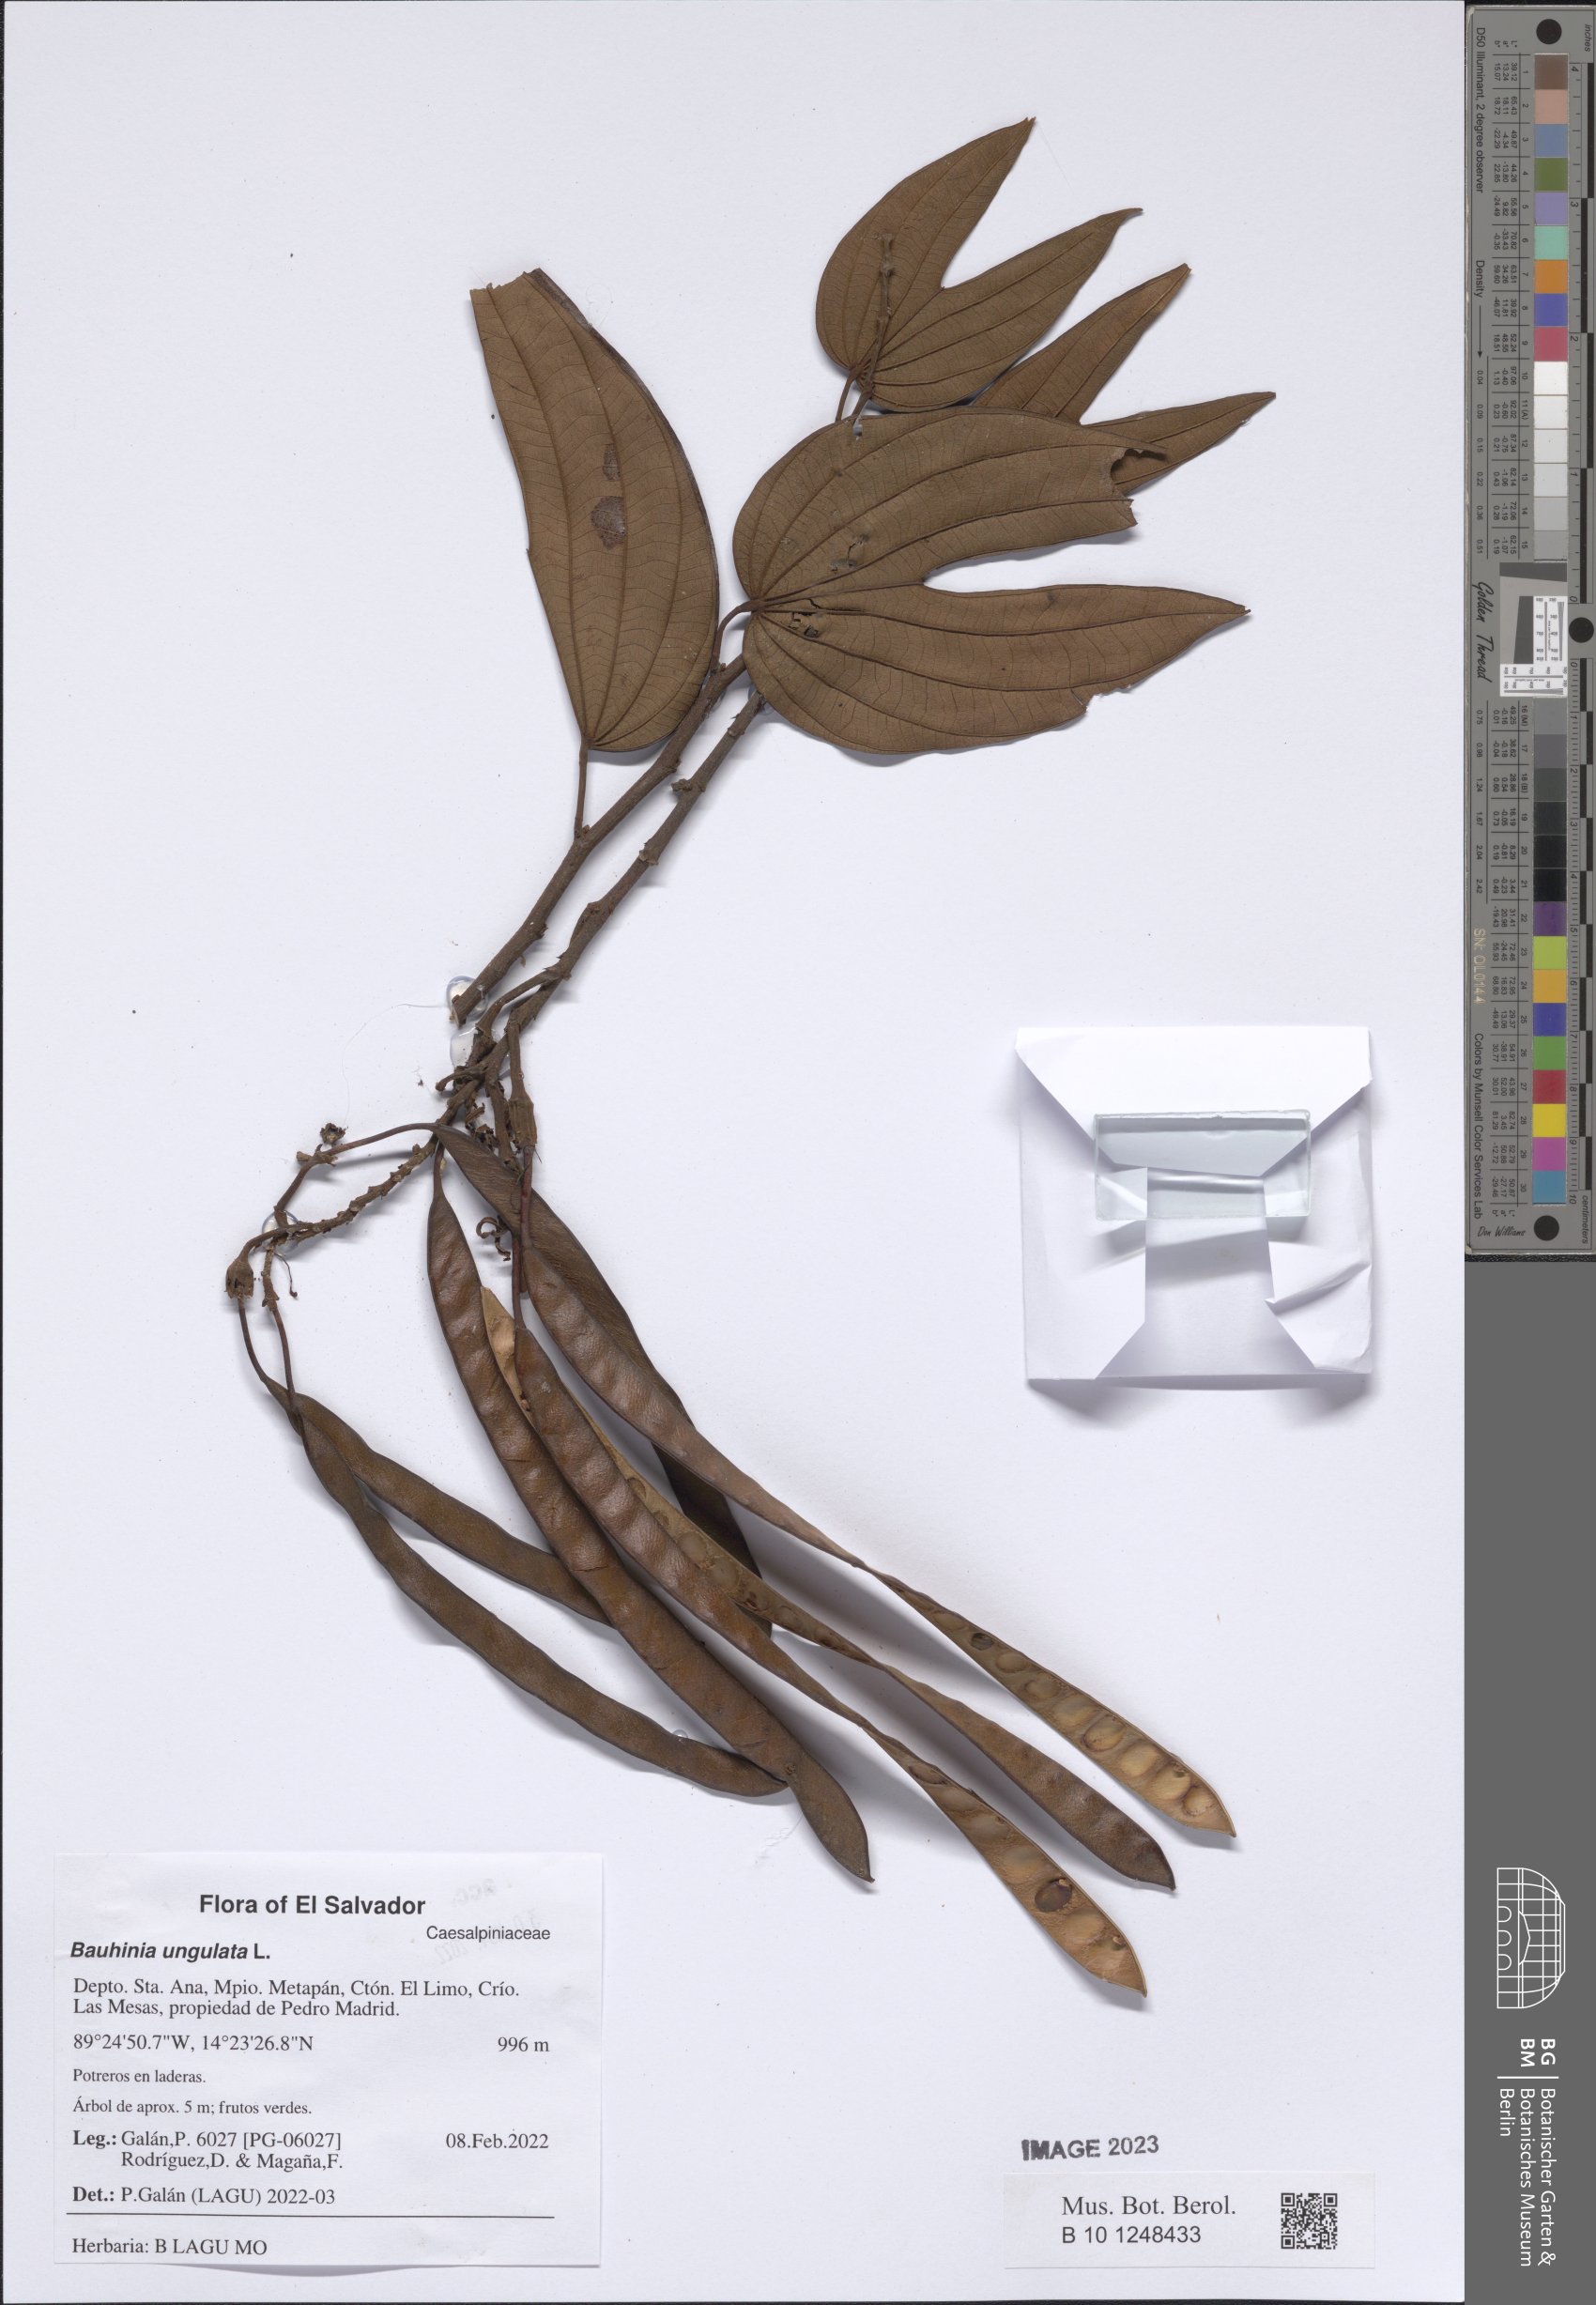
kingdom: Plantae
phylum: Tracheophyta
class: Magnoliopsida
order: Fabales
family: Fabaceae
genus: Bauhinia
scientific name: Bauhinia ungulata
